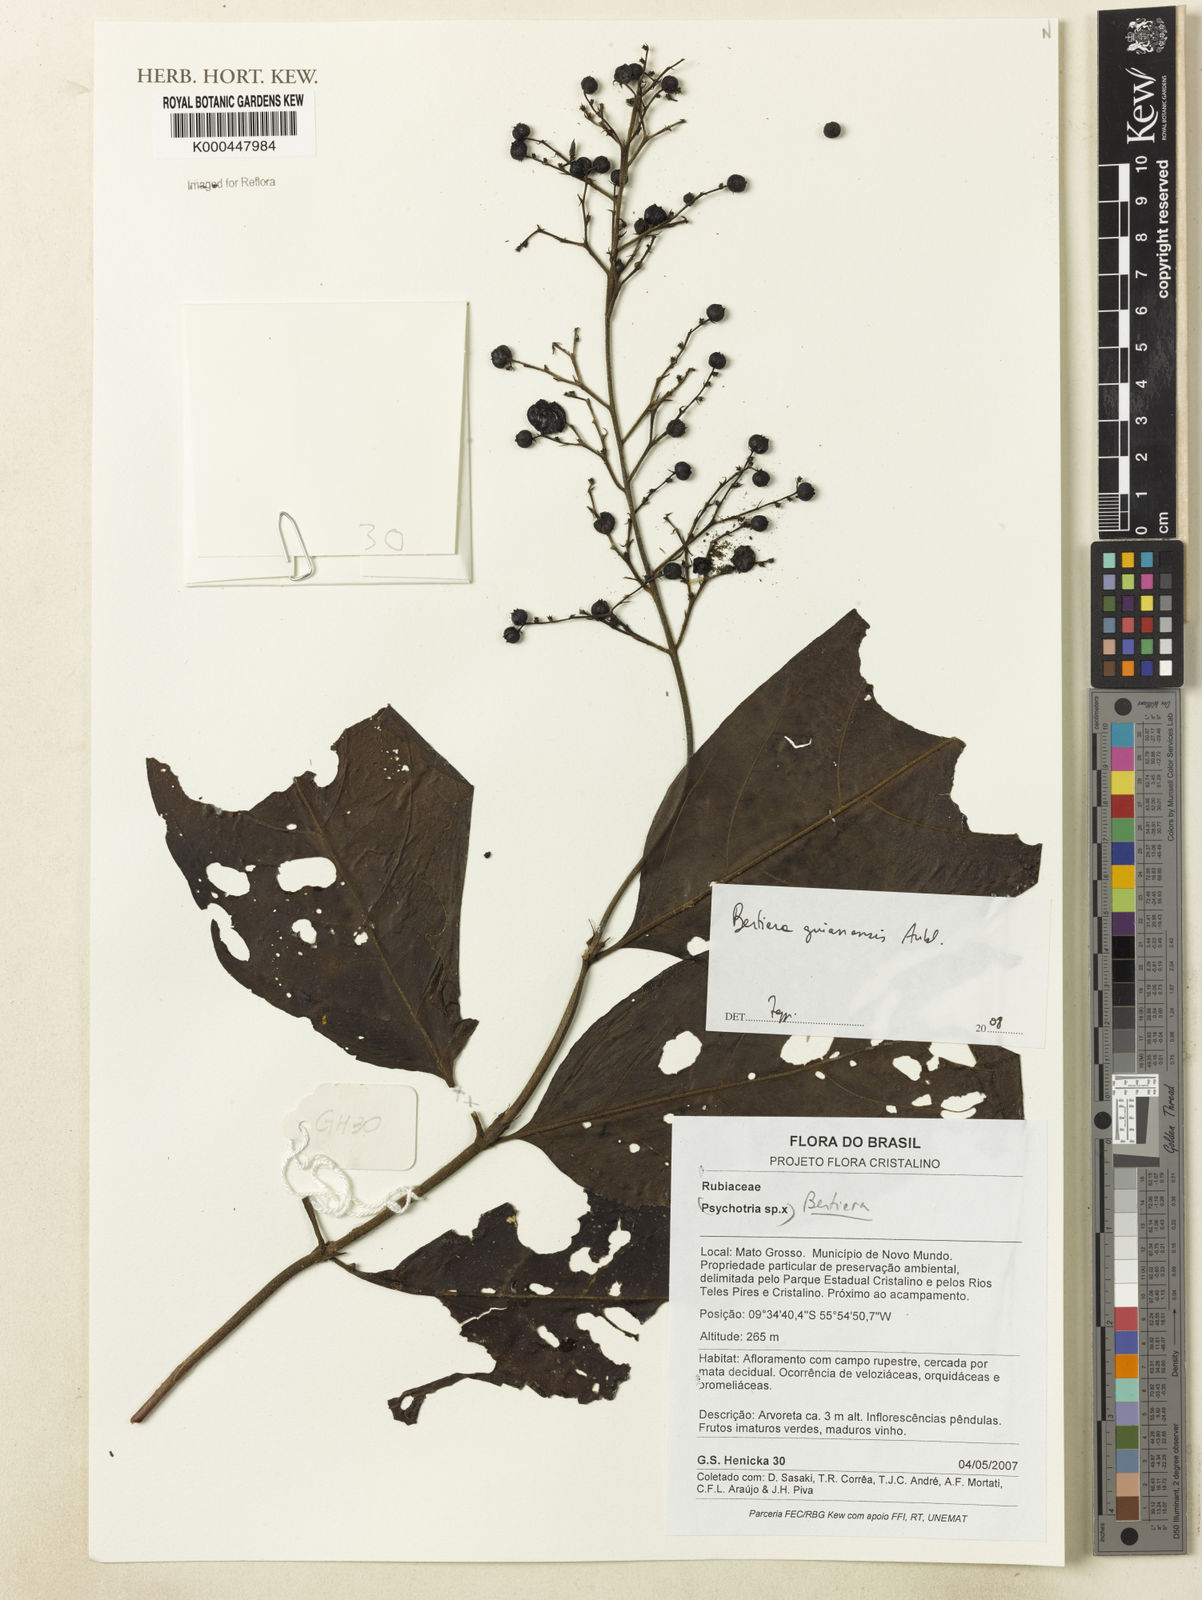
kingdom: Plantae
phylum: Tracheophyta
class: Magnoliopsida
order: Gentianales
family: Rubiaceae
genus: Bertiera
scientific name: Bertiera guianensis
